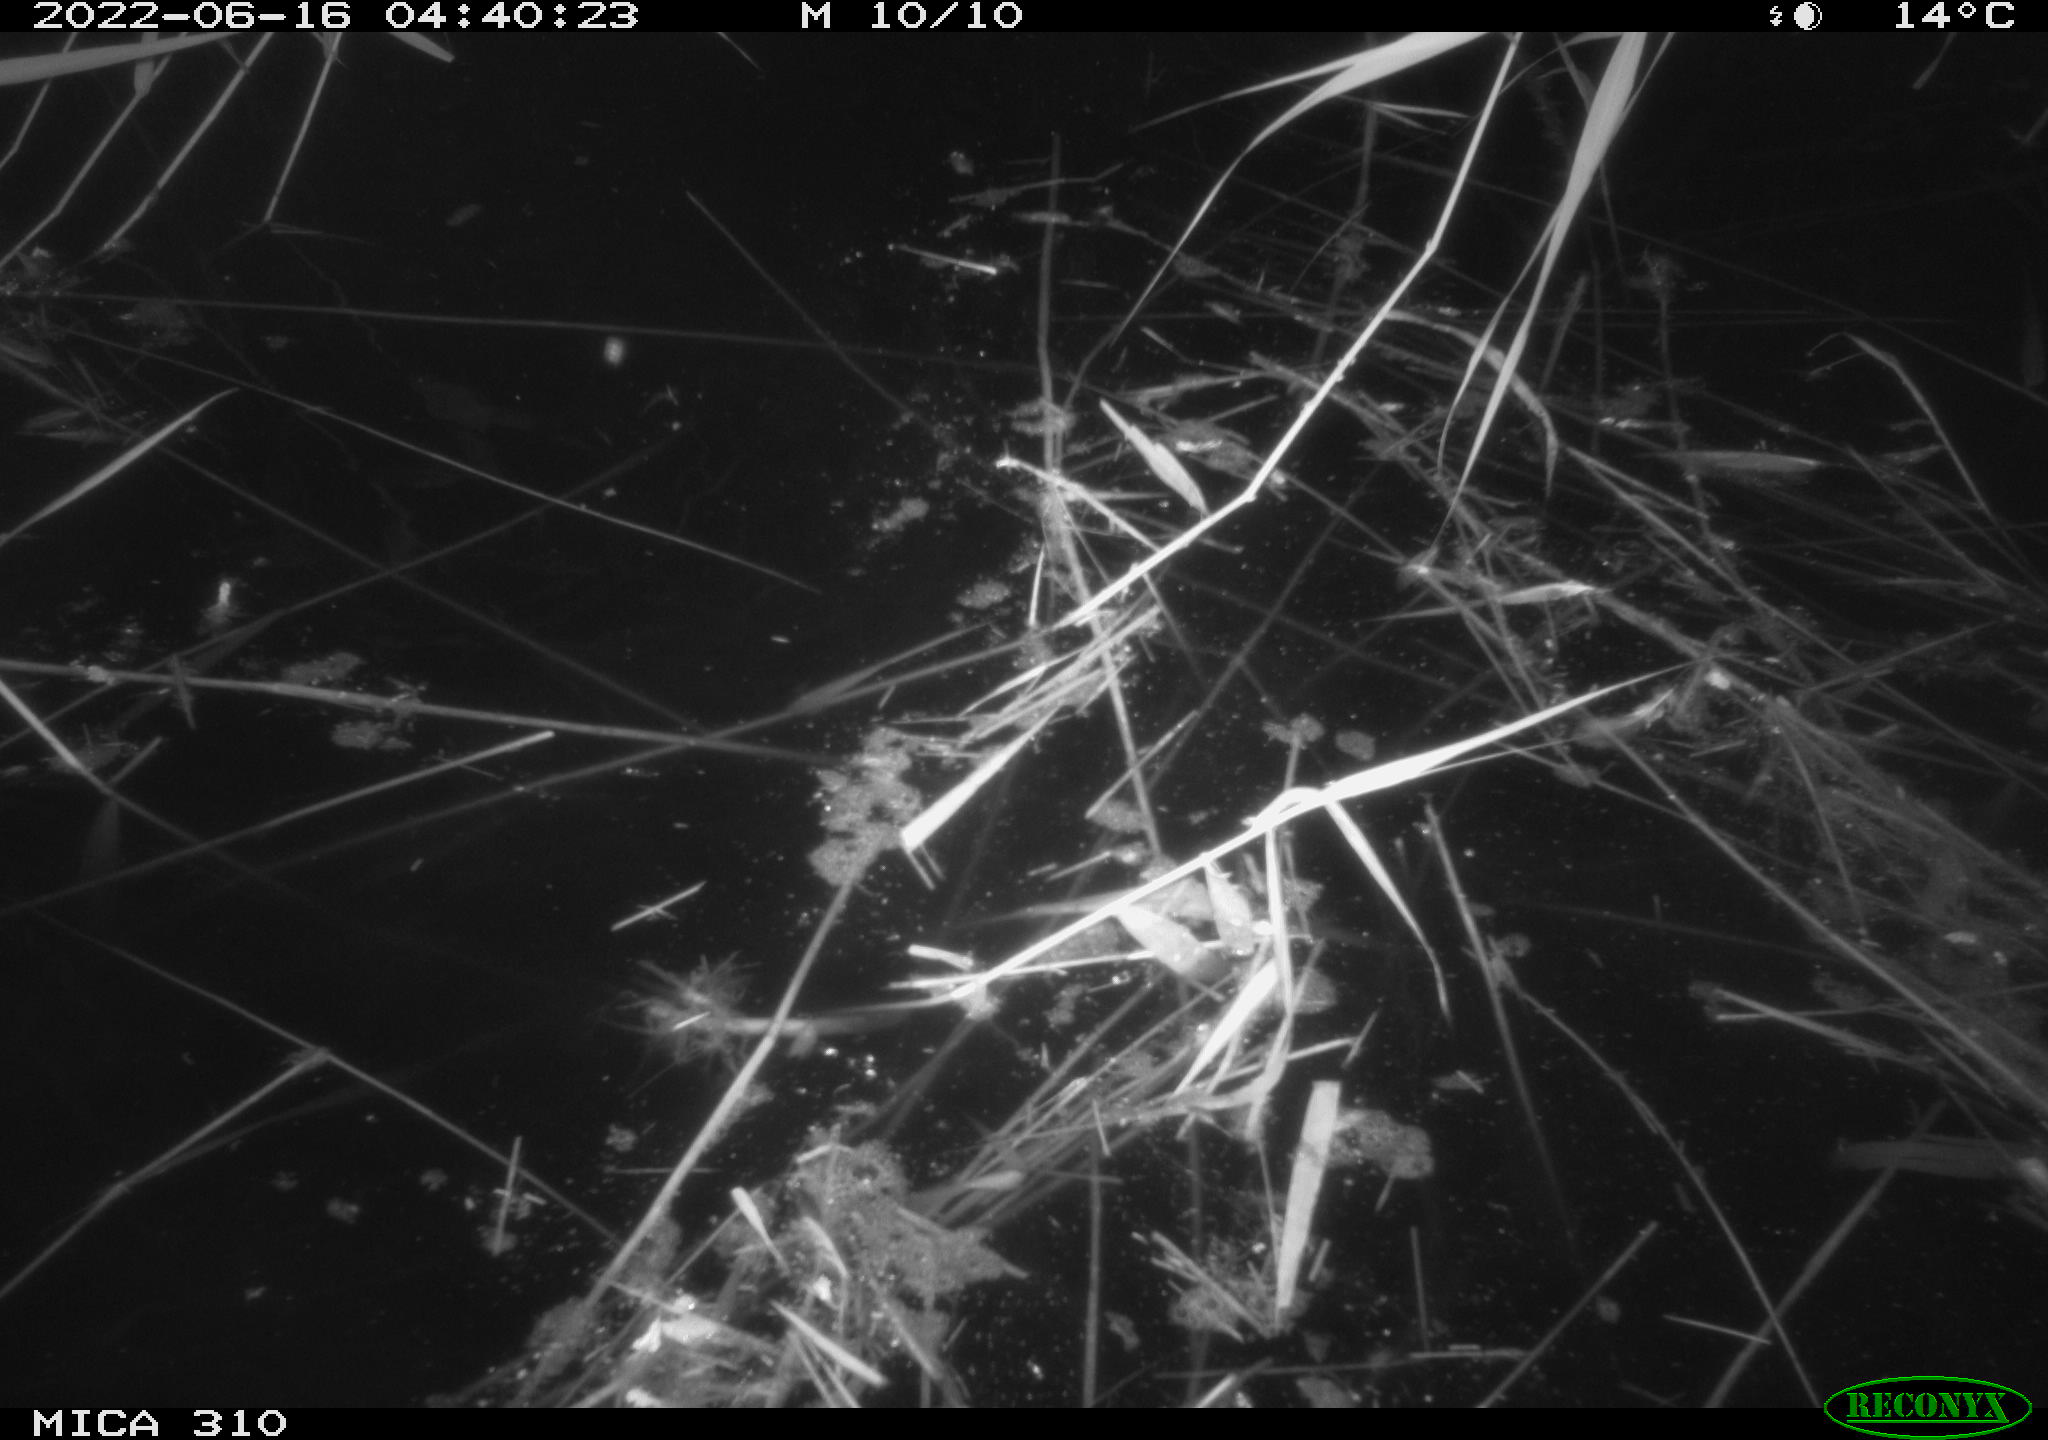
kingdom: Animalia
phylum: Chordata
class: Aves
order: Gruiformes
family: Rallidae
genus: Fulica
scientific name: Fulica atra
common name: Eurasian coot
